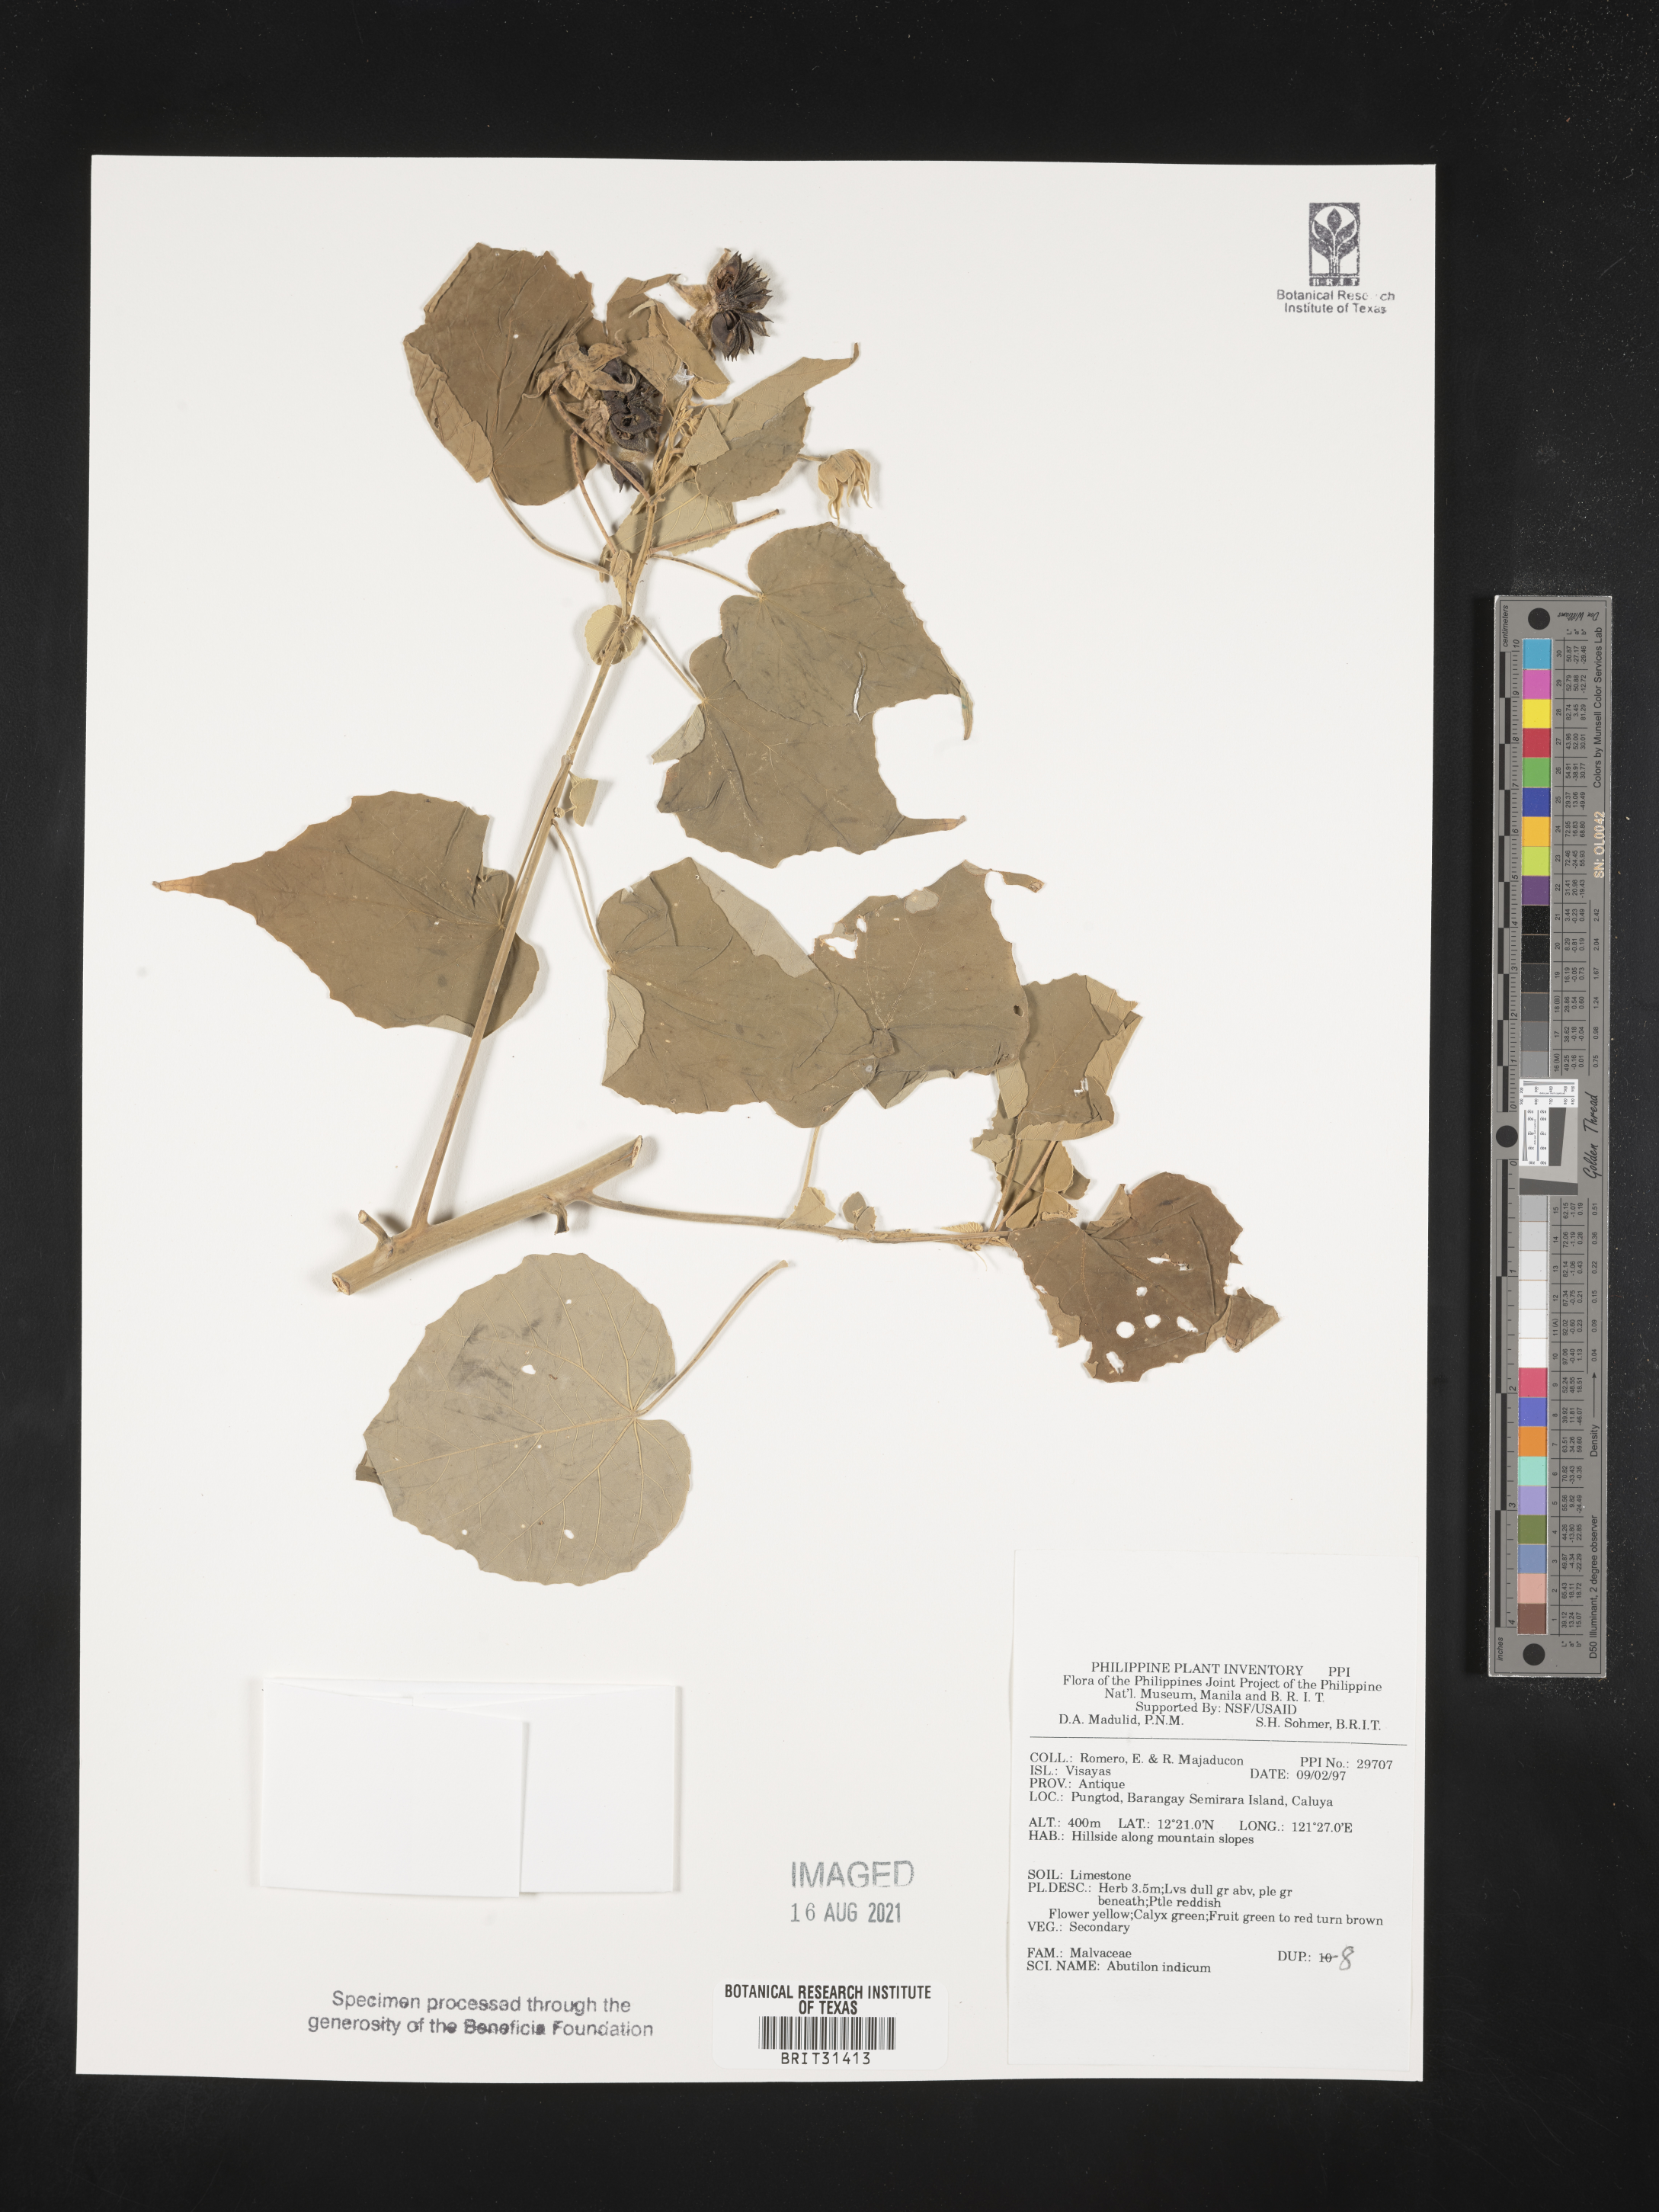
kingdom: Plantae
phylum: Tracheophyta
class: Magnoliopsida
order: Malvales
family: Malvaceae
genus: Abutilon
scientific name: Abutilon indicum
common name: Indian abutilon
